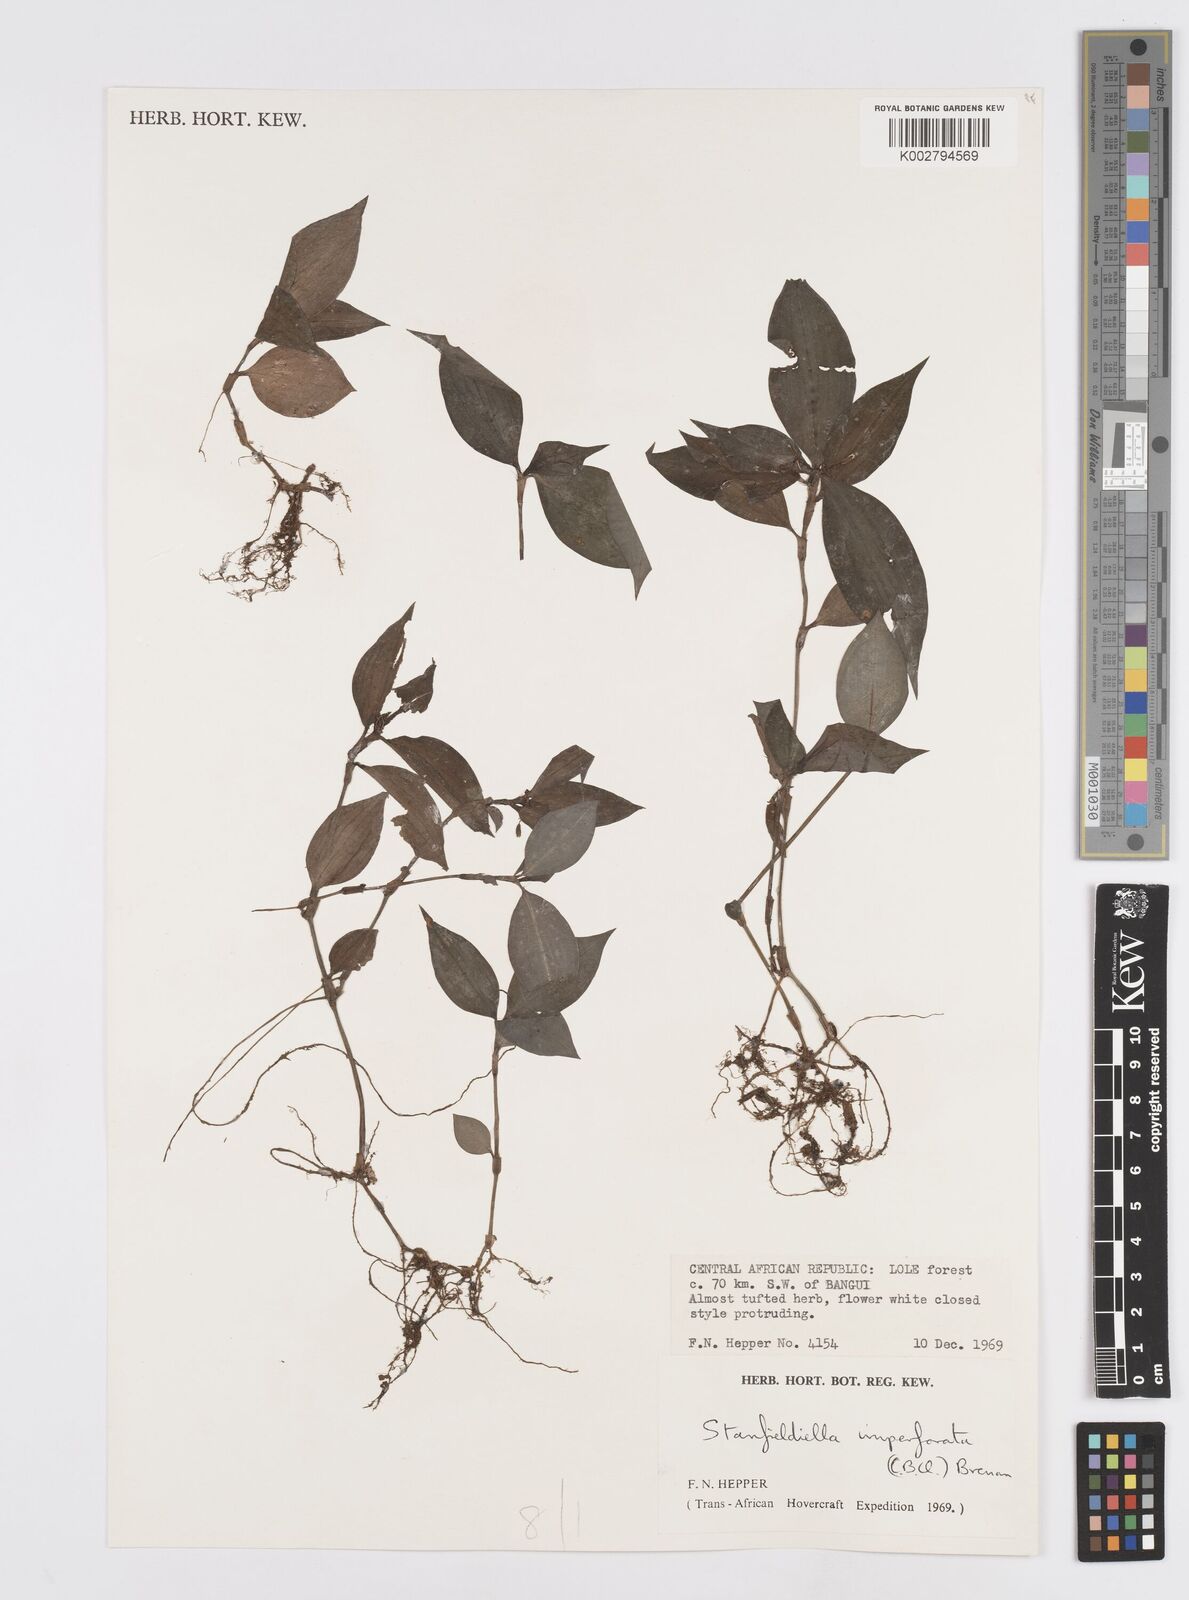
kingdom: Plantae
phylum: Tracheophyta
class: Liliopsida
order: Commelinales
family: Commelinaceae
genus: Stanfieldiella
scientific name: Stanfieldiella imperforata
